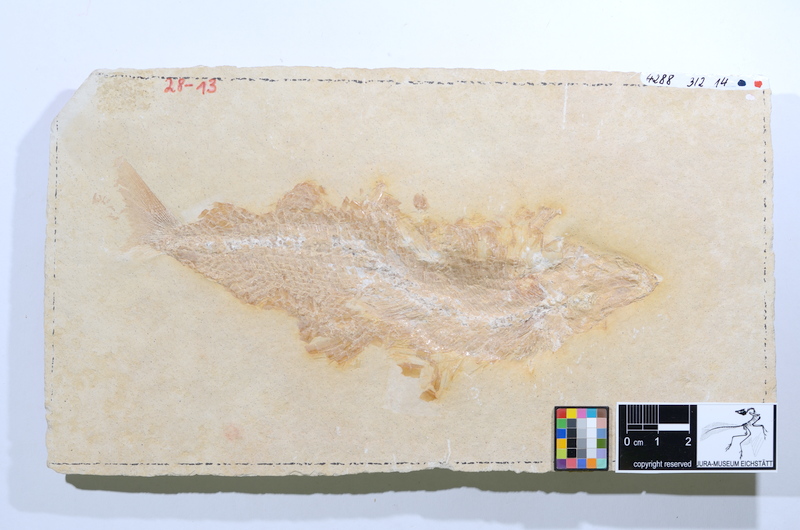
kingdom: Animalia
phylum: Chordata
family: Ankylophoridae
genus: Siemensichthys
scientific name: Siemensichthys macrocephalus
